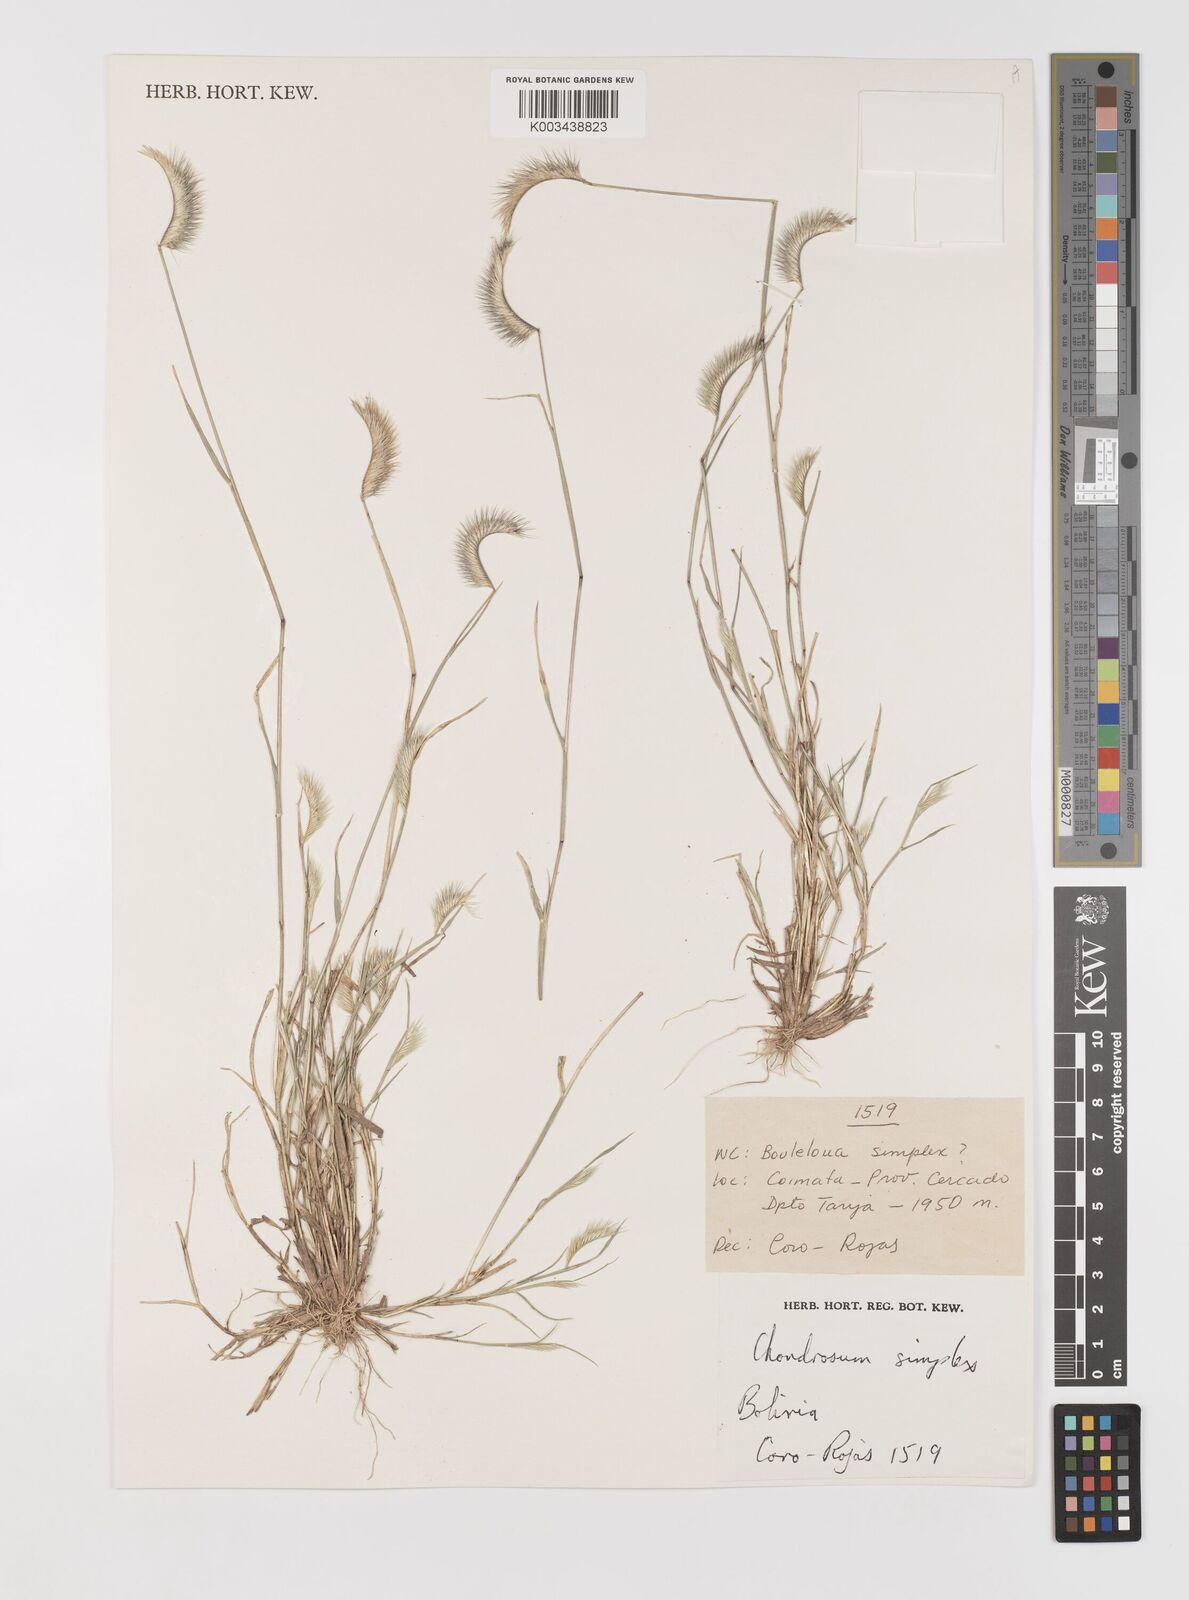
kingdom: Plantae
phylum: Tracheophyta
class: Liliopsida
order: Poales
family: Poaceae
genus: Bouteloua
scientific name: Bouteloua simplex
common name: Mat grama
